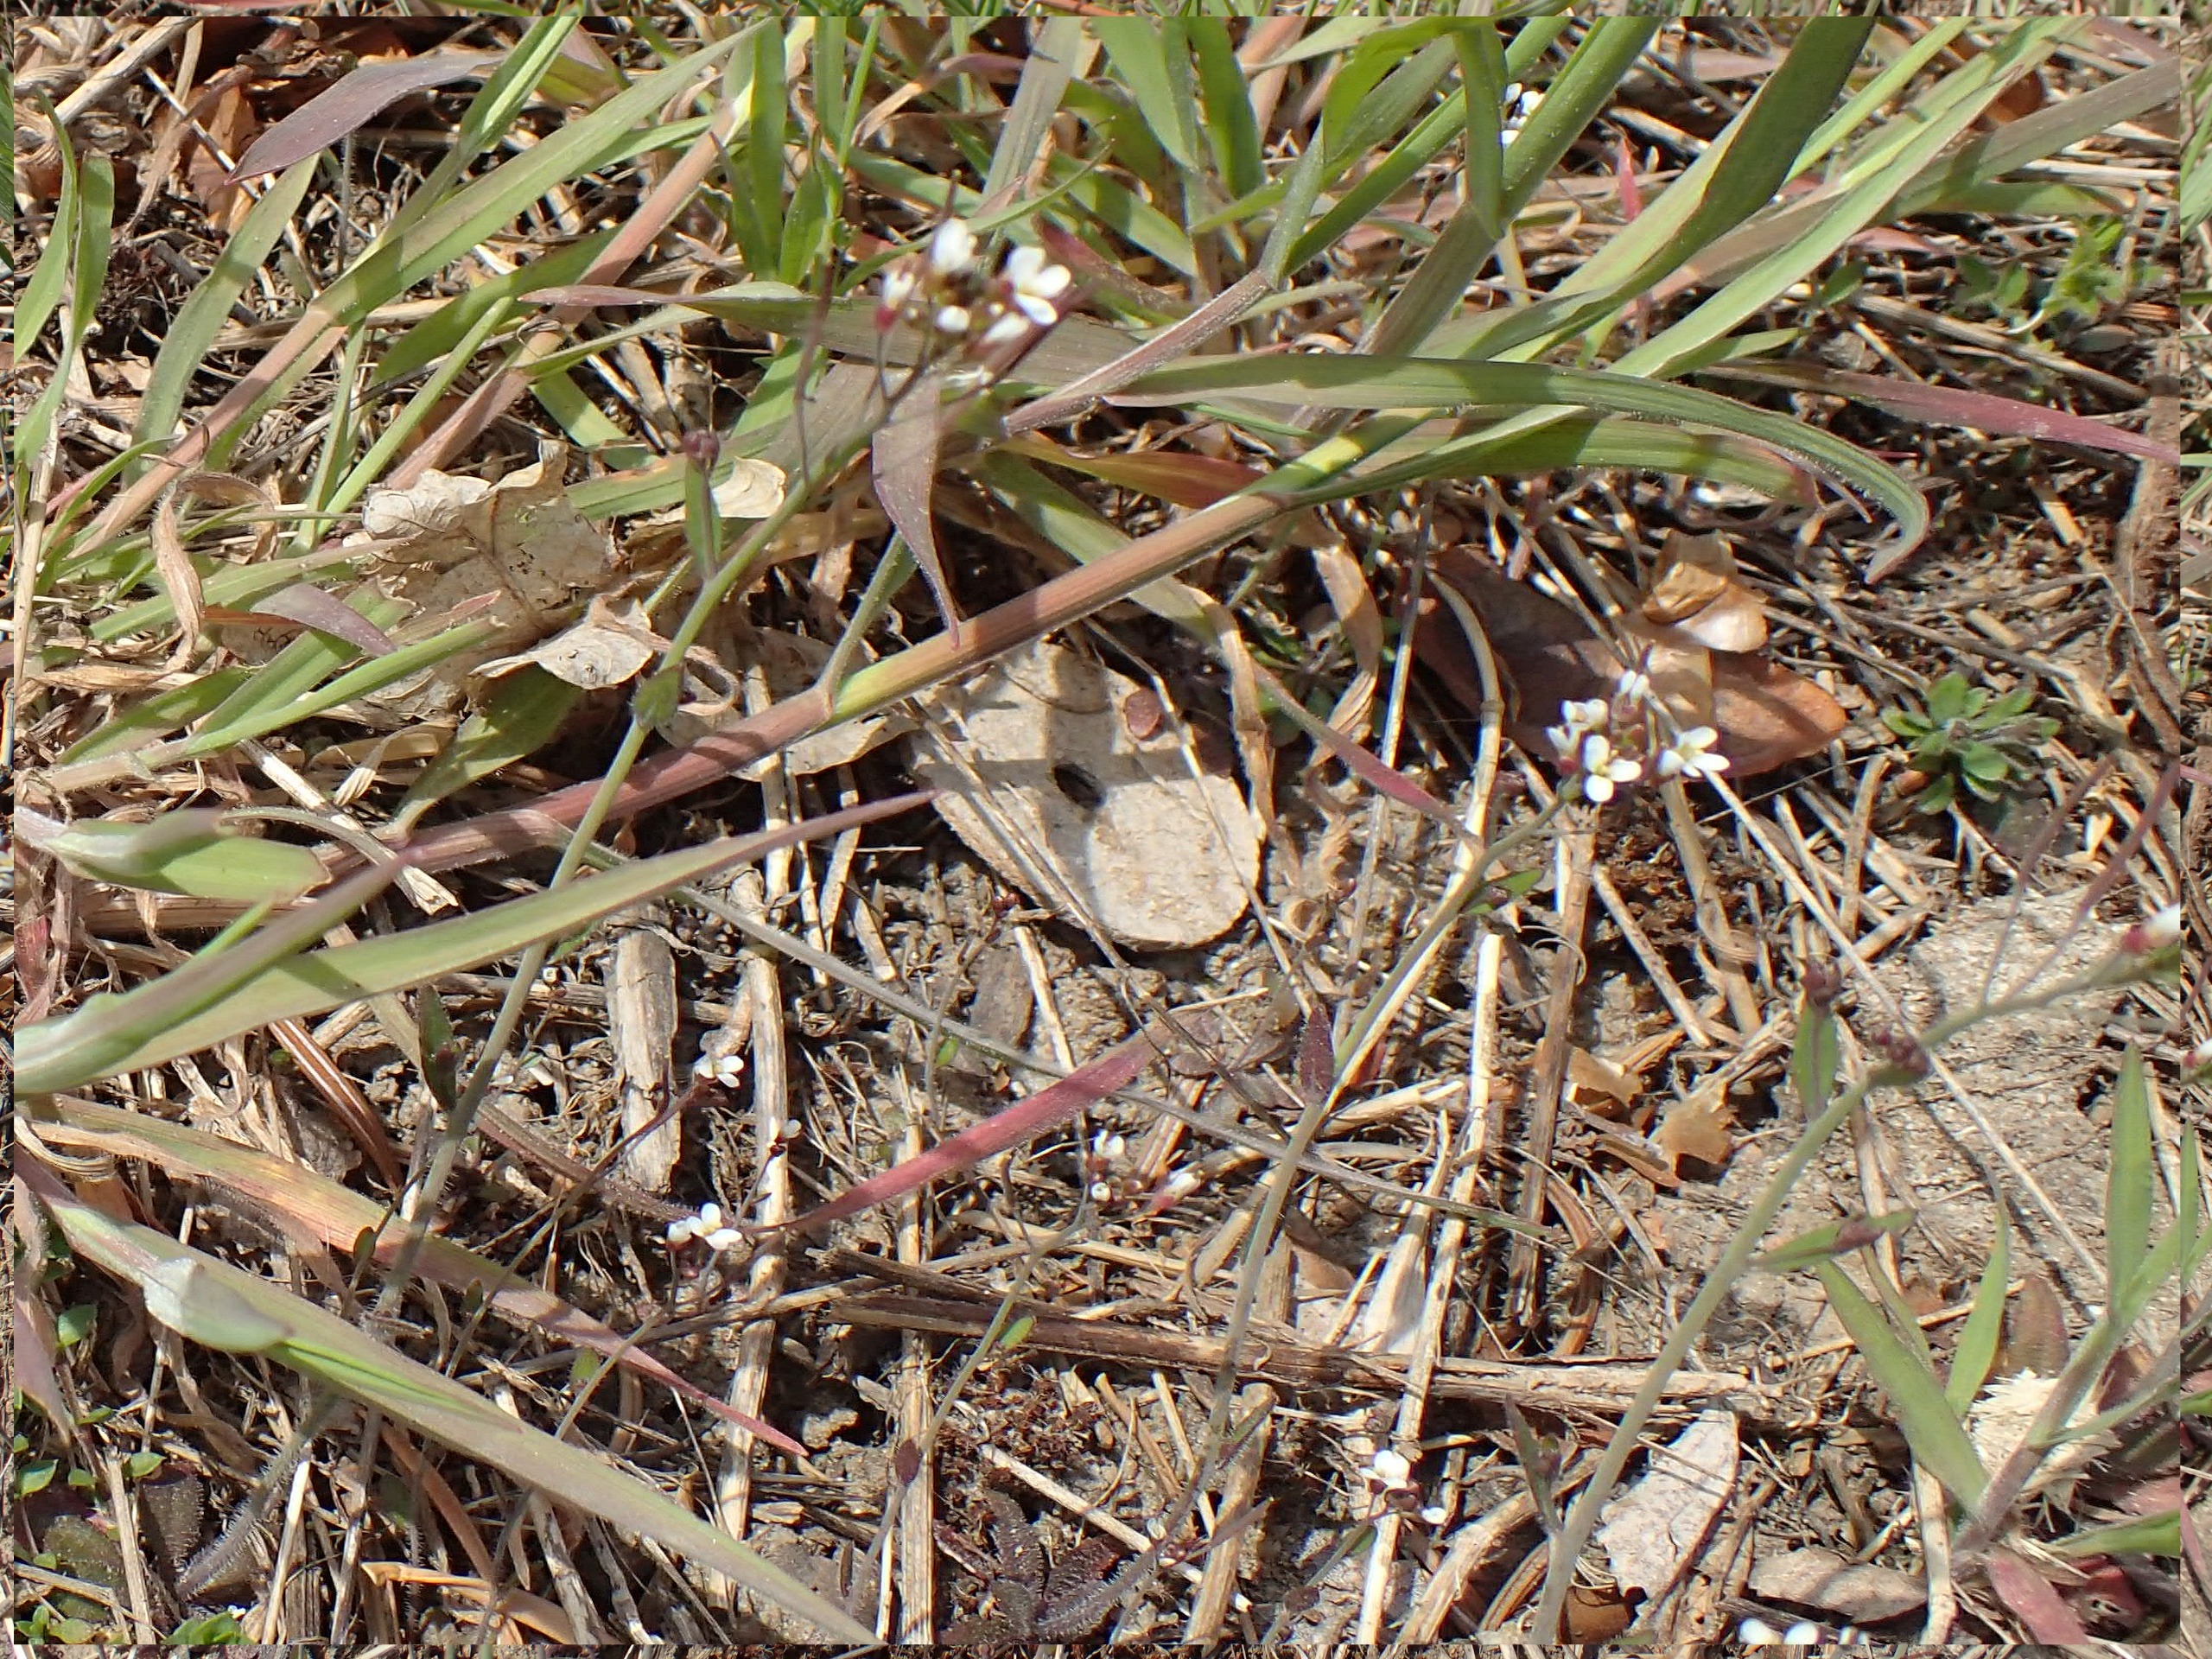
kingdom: Plantae
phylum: Tracheophyta
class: Magnoliopsida
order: Brassicales
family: Brassicaceae
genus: Arabidopsis
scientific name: Arabidopsis thaliana
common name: Almindelig gåsemad
